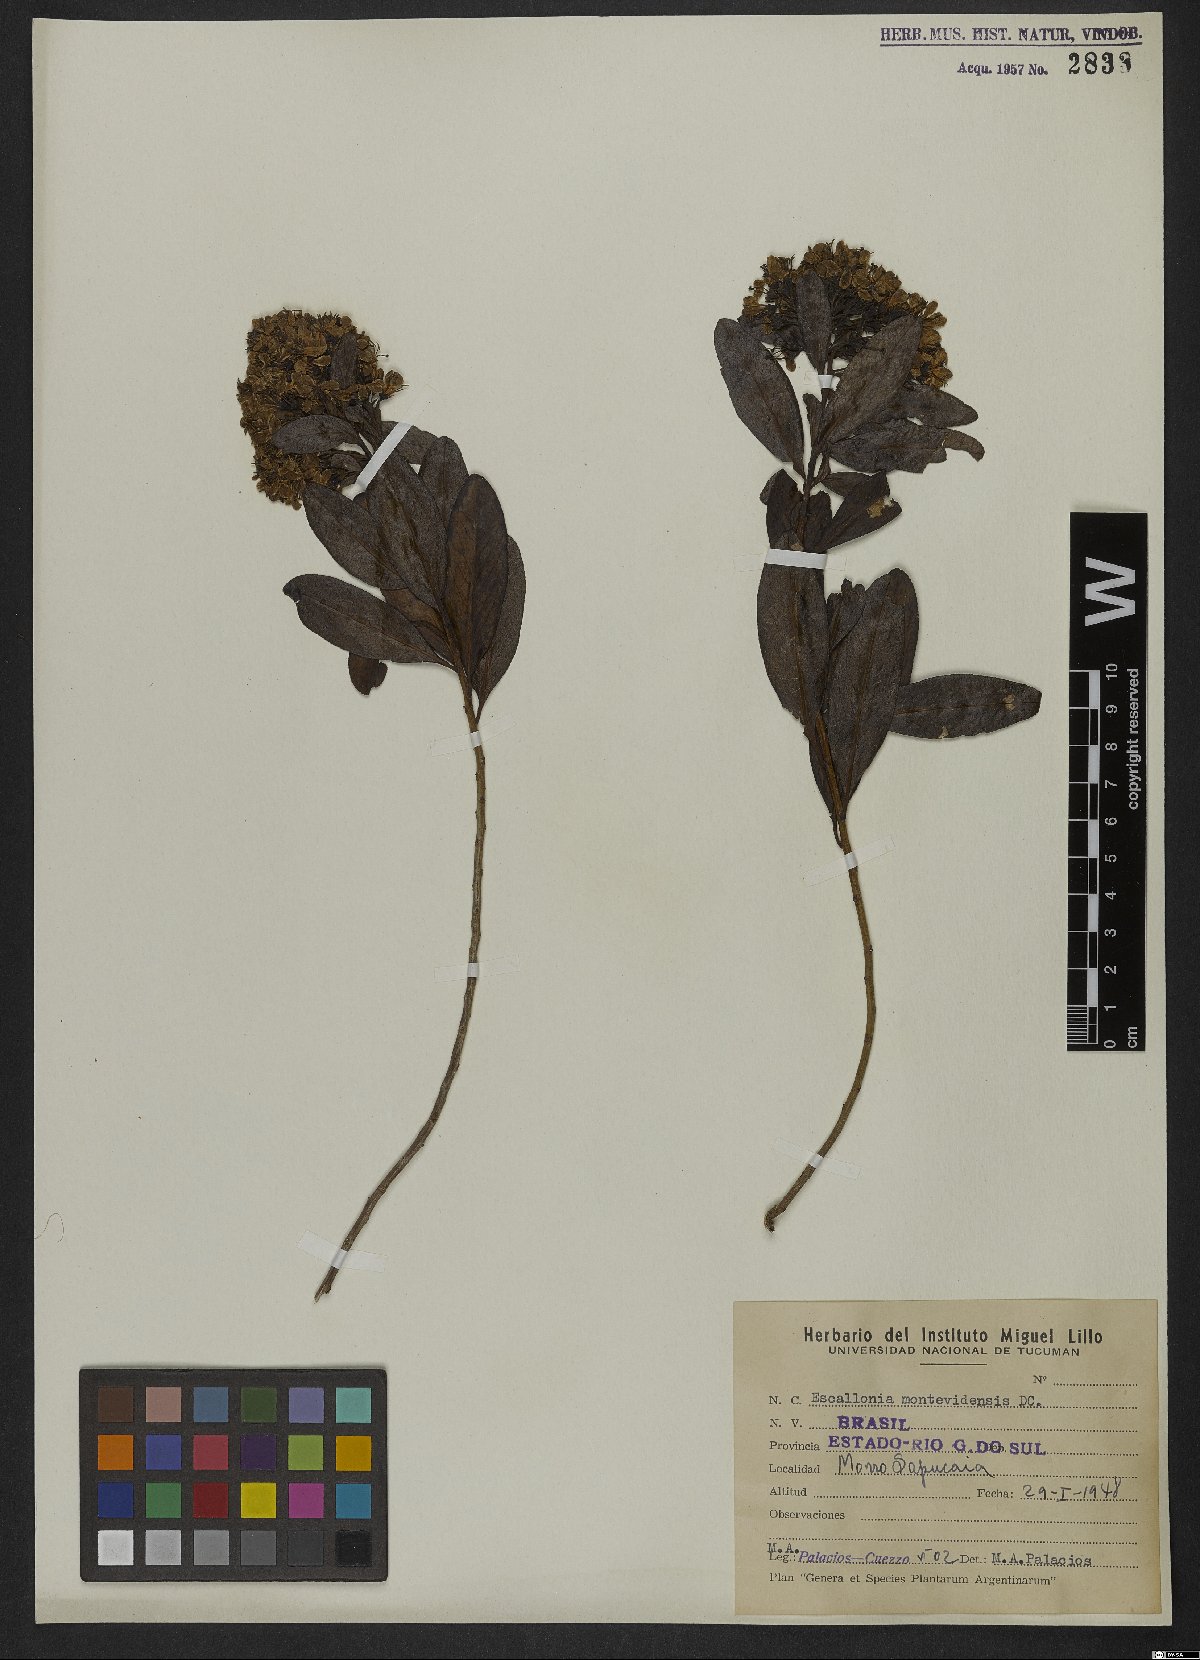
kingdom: Plantae
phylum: Tracheophyta
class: Magnoliopsida
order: Escalloniales
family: Escalloniaceae
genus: Escallonia
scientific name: Escallonia bifida
